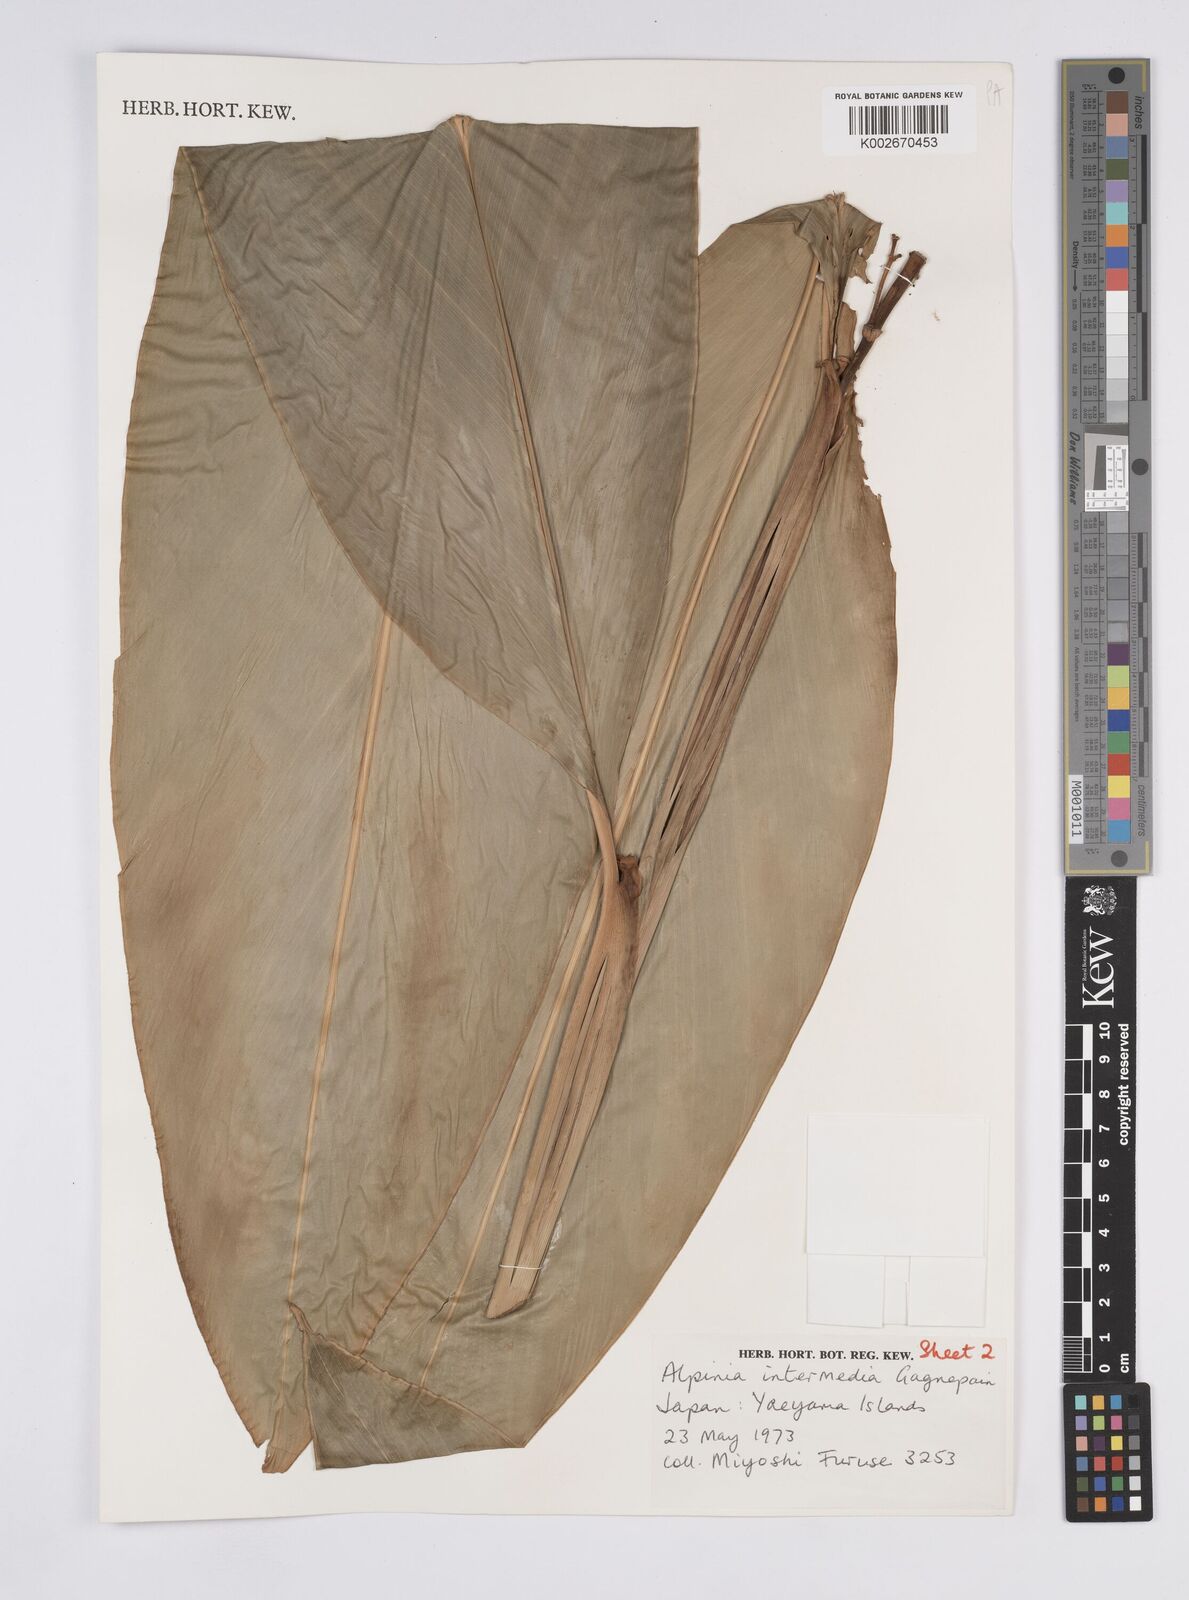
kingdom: Plantae
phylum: Tracheophyta
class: Liliopsida
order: Zingiberales
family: Zingiberaceae
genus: Alpinia
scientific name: Alpinia intermedia
